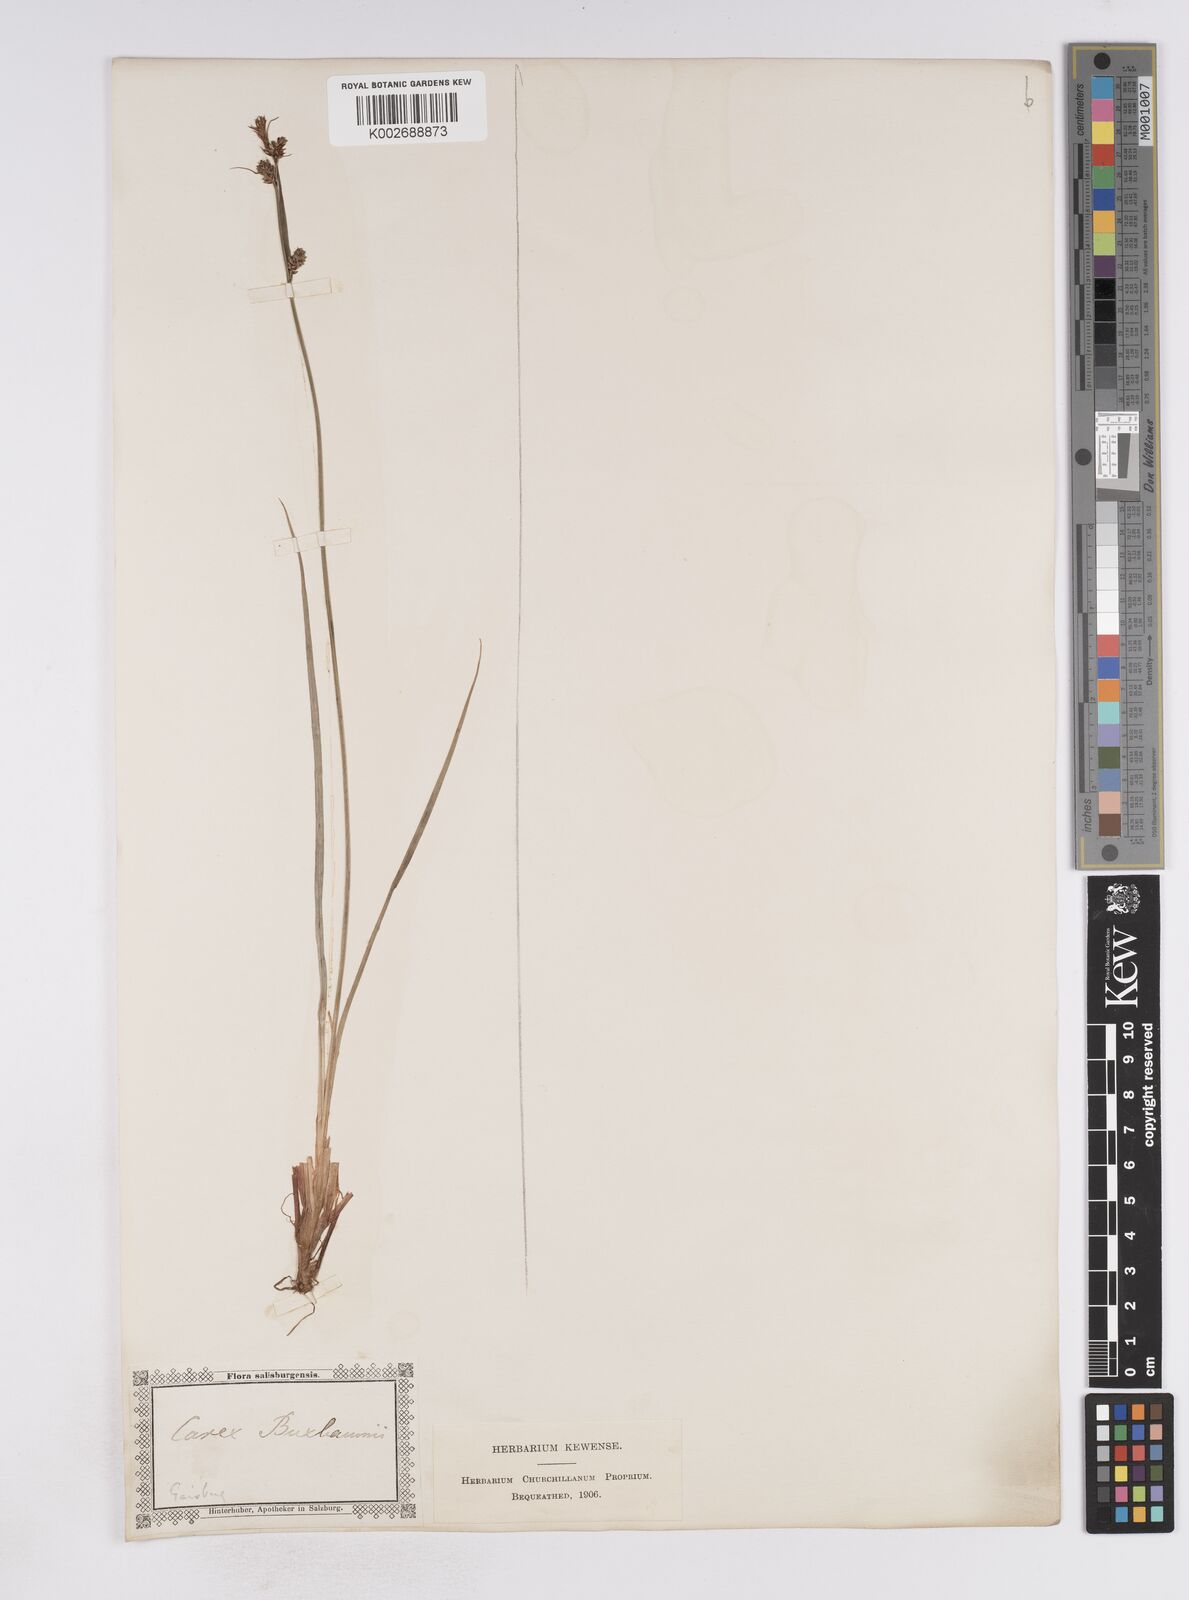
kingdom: Plantae
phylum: Tracheophyta
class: Liliopsida
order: Poales
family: Cyperaceae
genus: Carex
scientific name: Carex buxbaumii
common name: Club sedge
